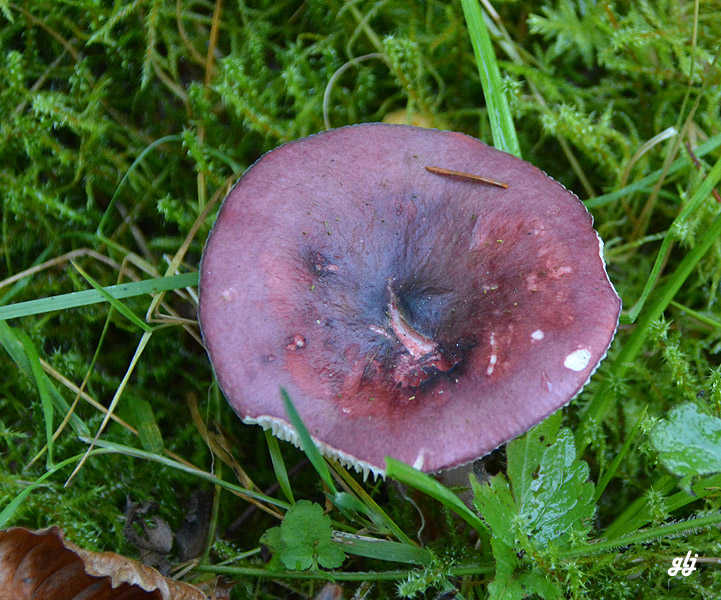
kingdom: Fungi
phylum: Basidiomycota
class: Agaricomycetes
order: Russulales
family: Russulaceae
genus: Russula
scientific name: Russula queletii
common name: Quélets skørhat
